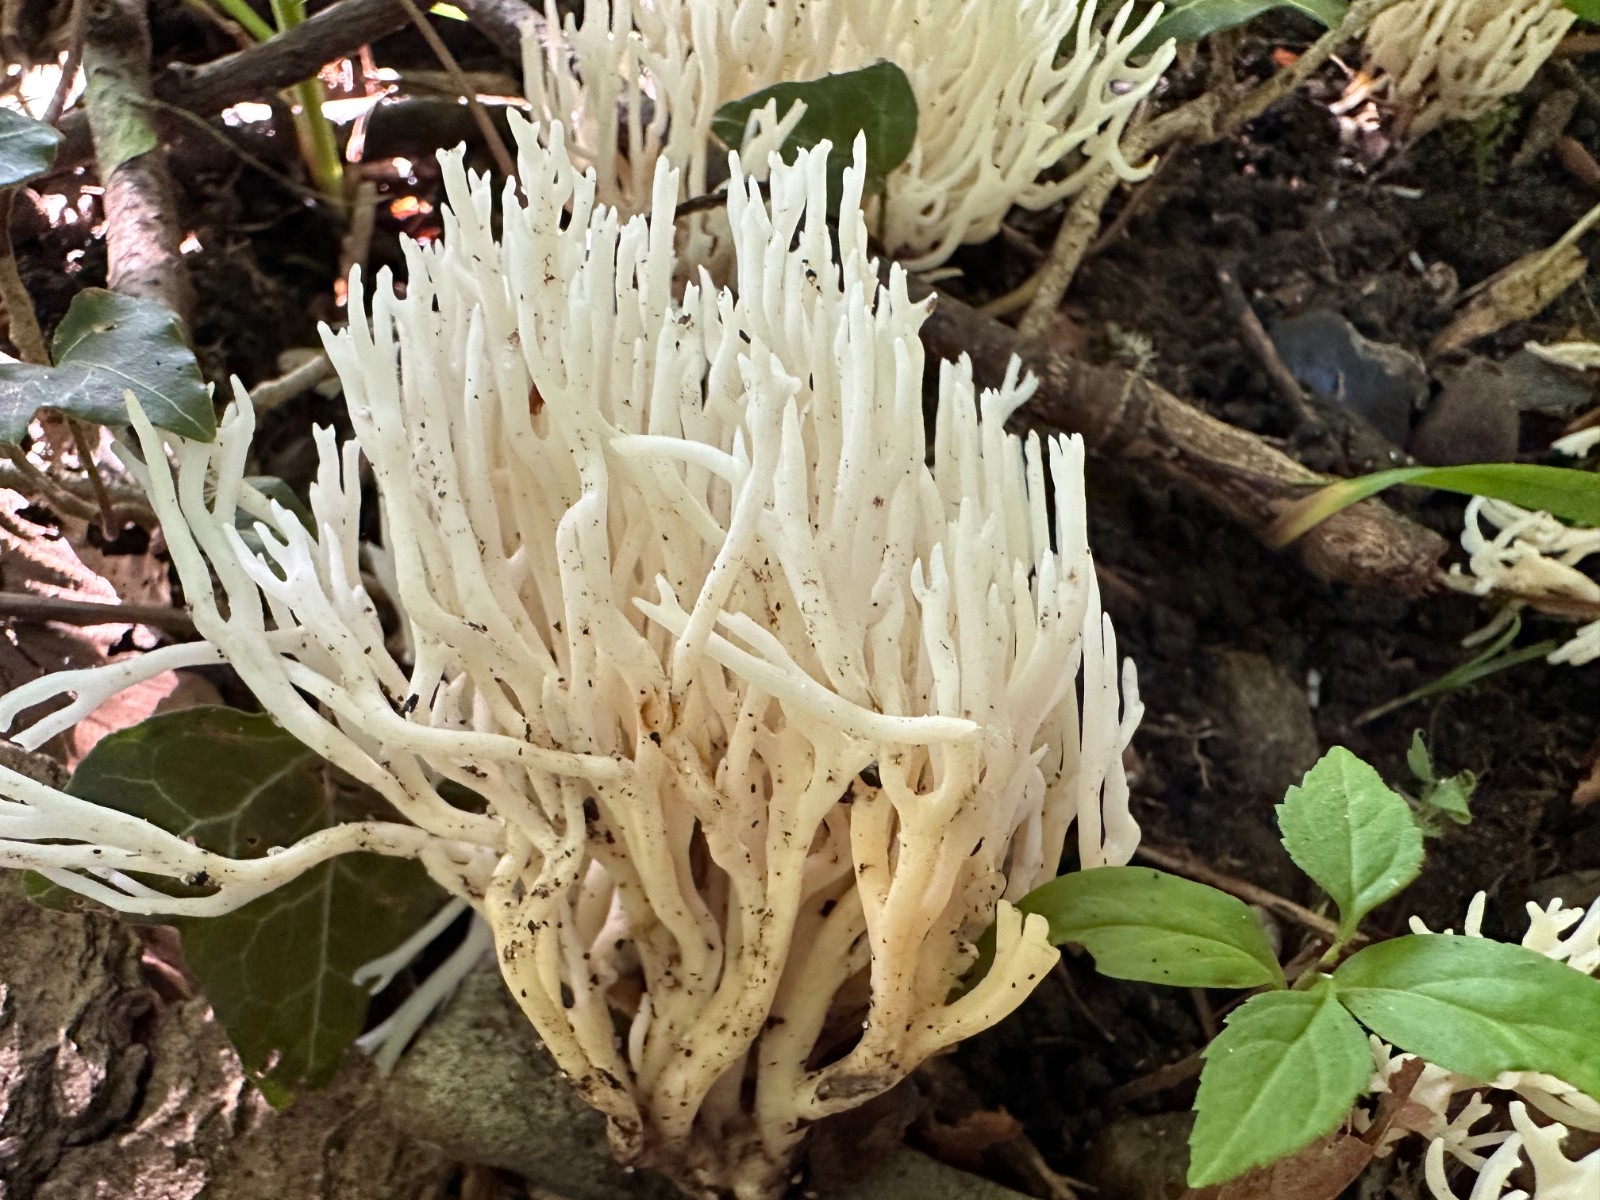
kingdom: Fungi
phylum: Basidiomycota
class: Agaricomycetes
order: Agaricales
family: Clavariaceae
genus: Ramariopsis
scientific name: Ramariopsis kunzei
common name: mangegrenet køllesvamp
